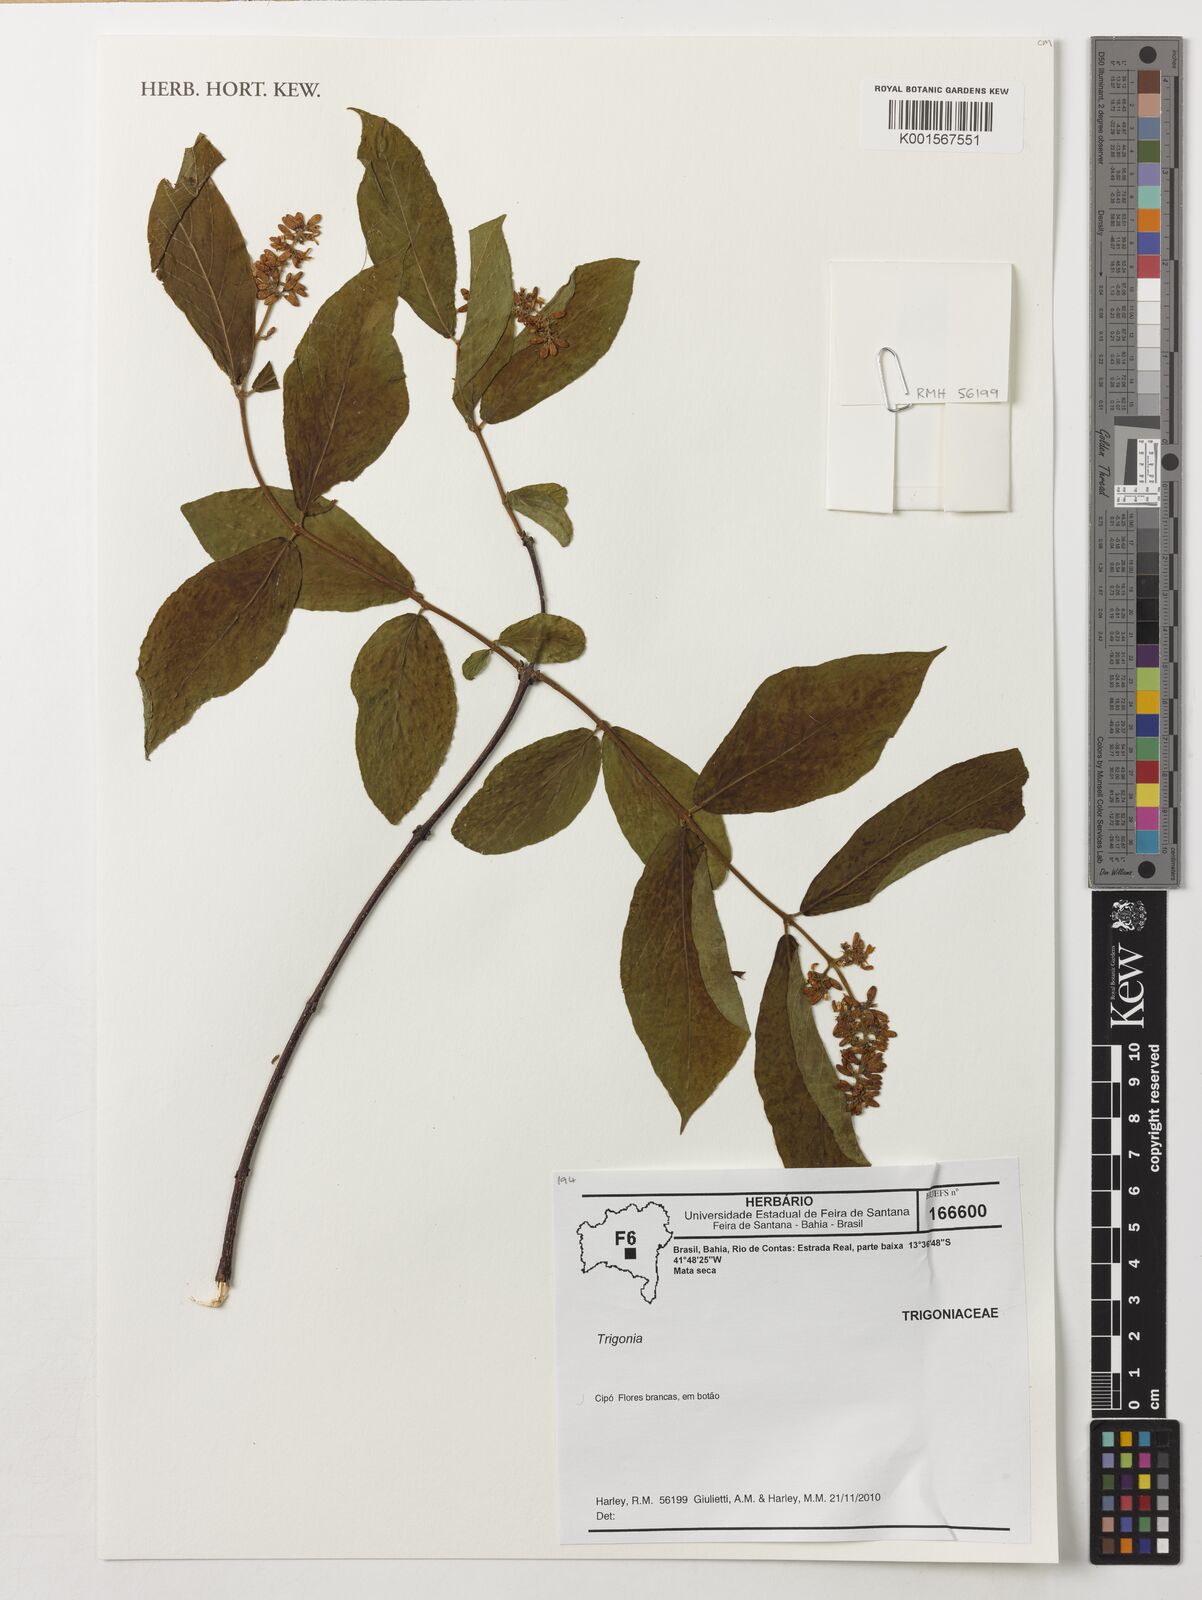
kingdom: Plantae
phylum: Tracheophyta
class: Magnoliopsida
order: Malpighiales
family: Trigoniaceae
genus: Trigonia
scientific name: Trigonia
